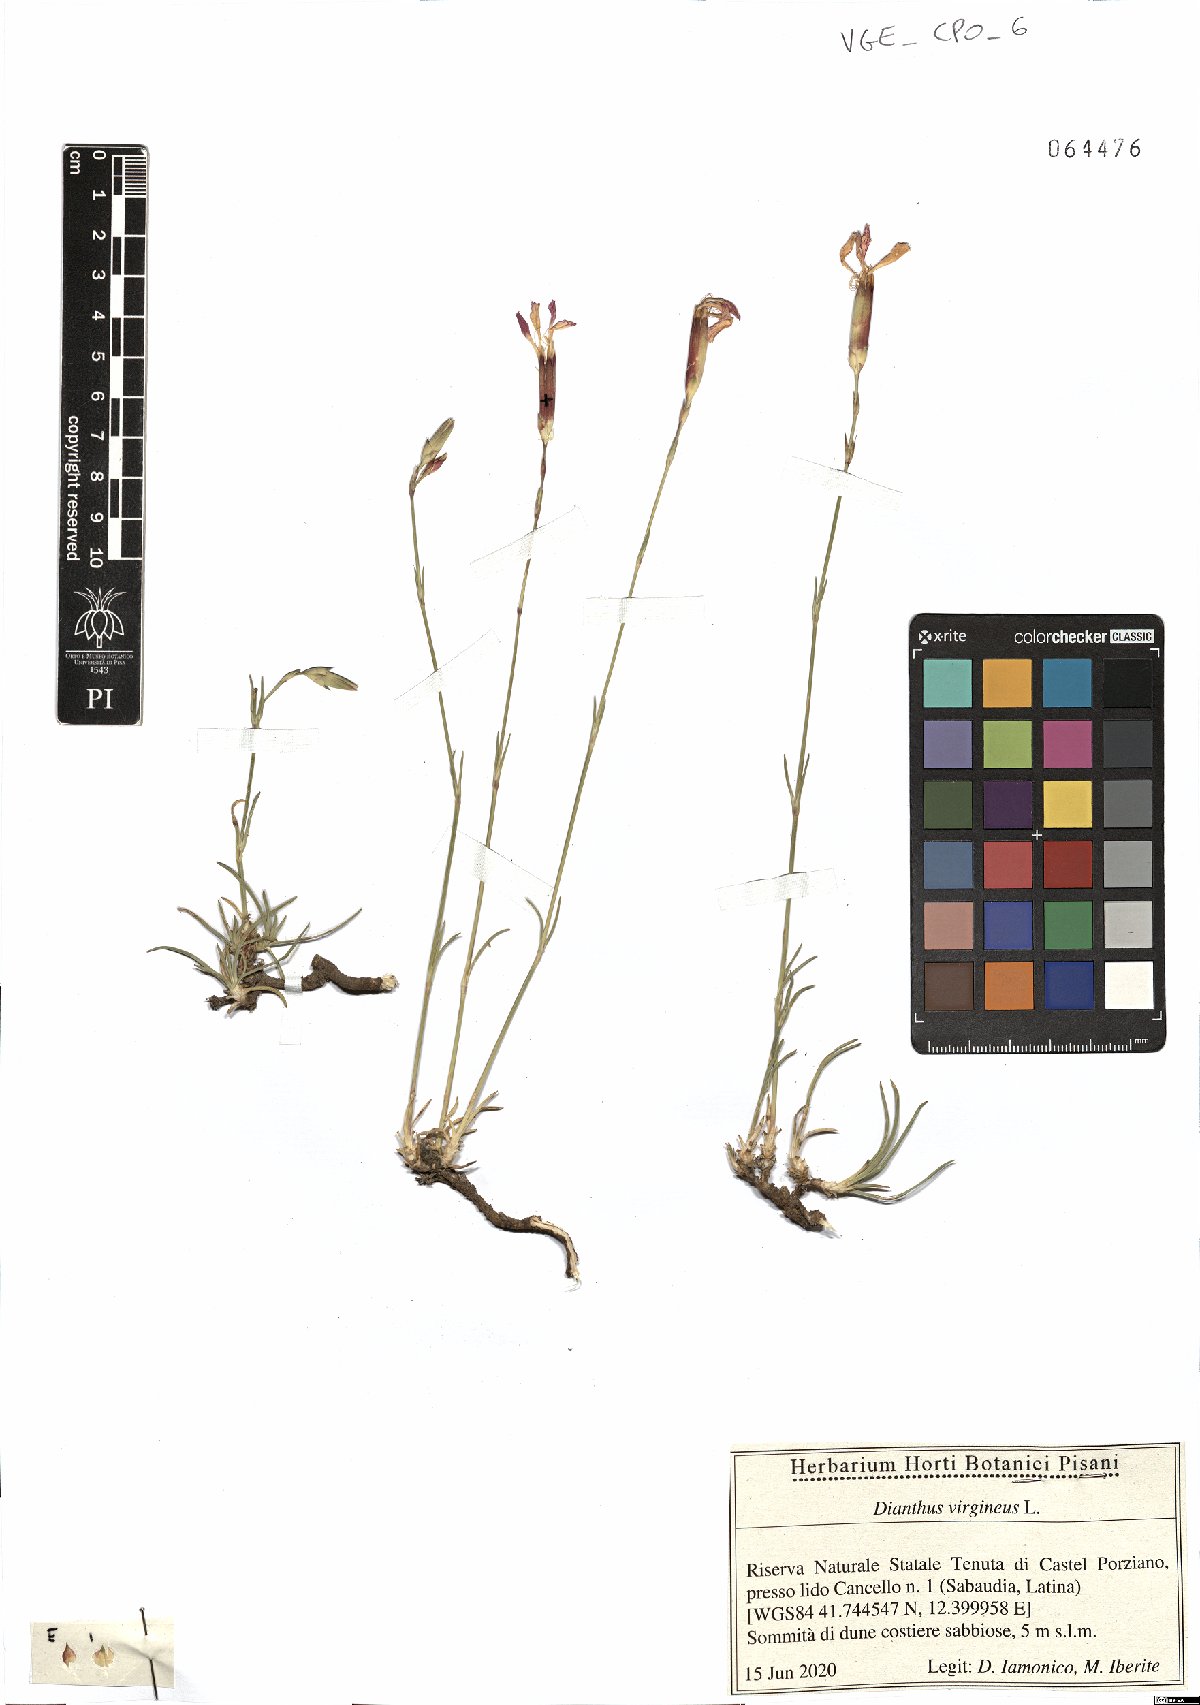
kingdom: Plantae
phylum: Tracheophyta
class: Magnoliopsida
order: Caryophyllales
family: Caryophyllaceae
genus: Dianthus
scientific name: Dianthus virgineus
